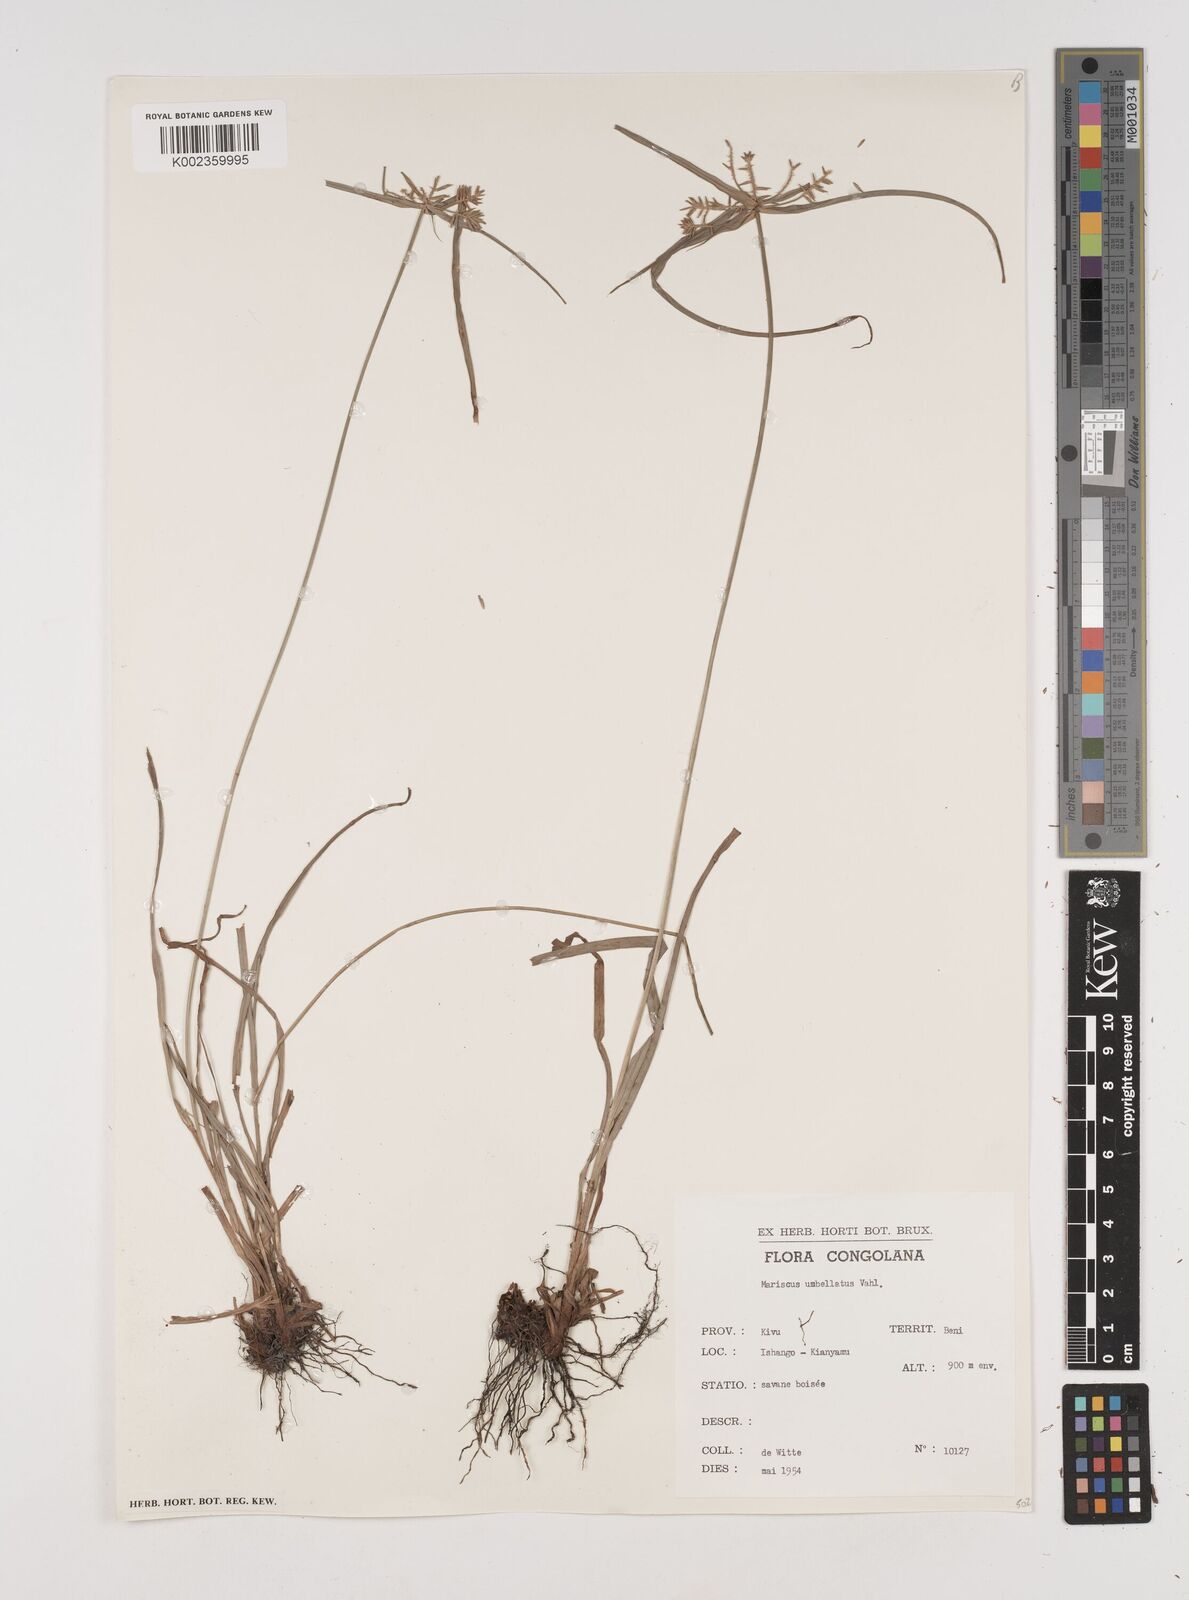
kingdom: Plantae
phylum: Tracheophyta
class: Liliopsida
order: Poales
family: Cyperaceae
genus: Cyperus
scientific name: Cyperus cyperoides
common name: Pacific island flat sedge
